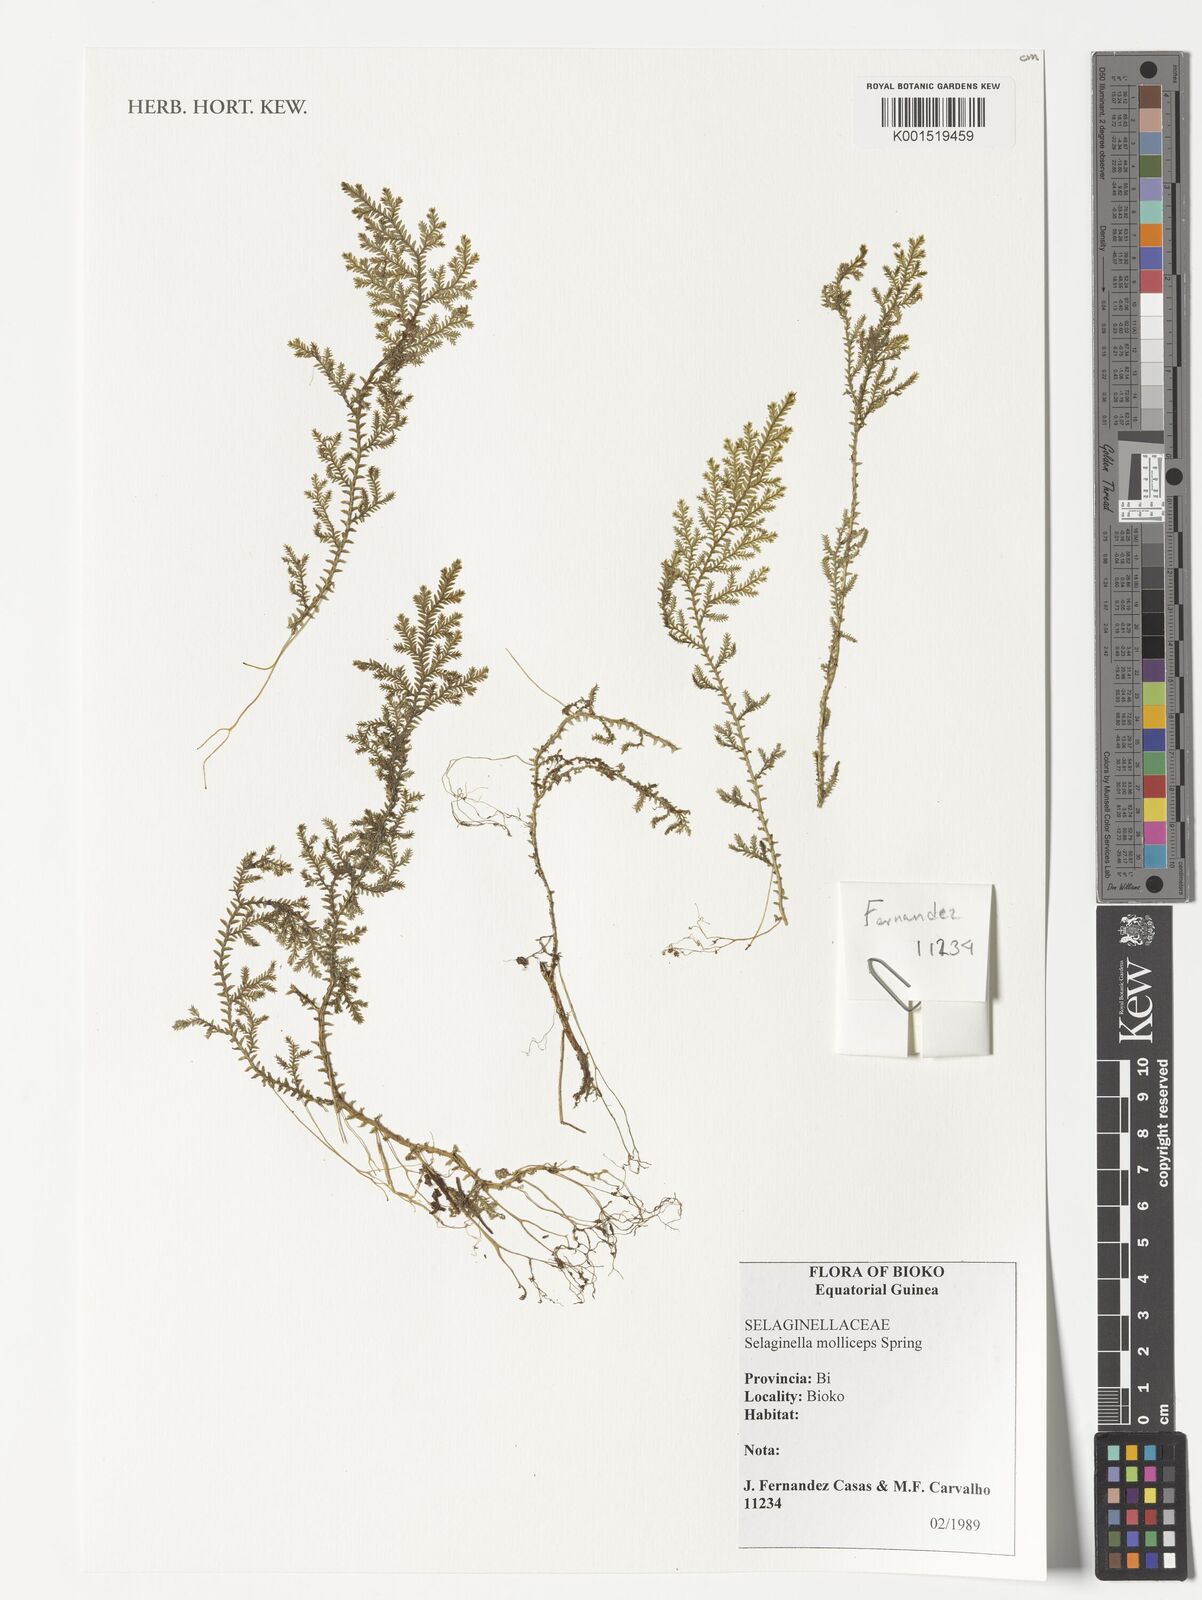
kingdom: Plantae
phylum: Tracheophyta
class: Lycopodiopsida
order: Selaginellales
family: Selaginellaceae
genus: Selaginella
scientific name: Selaginella molliceps
